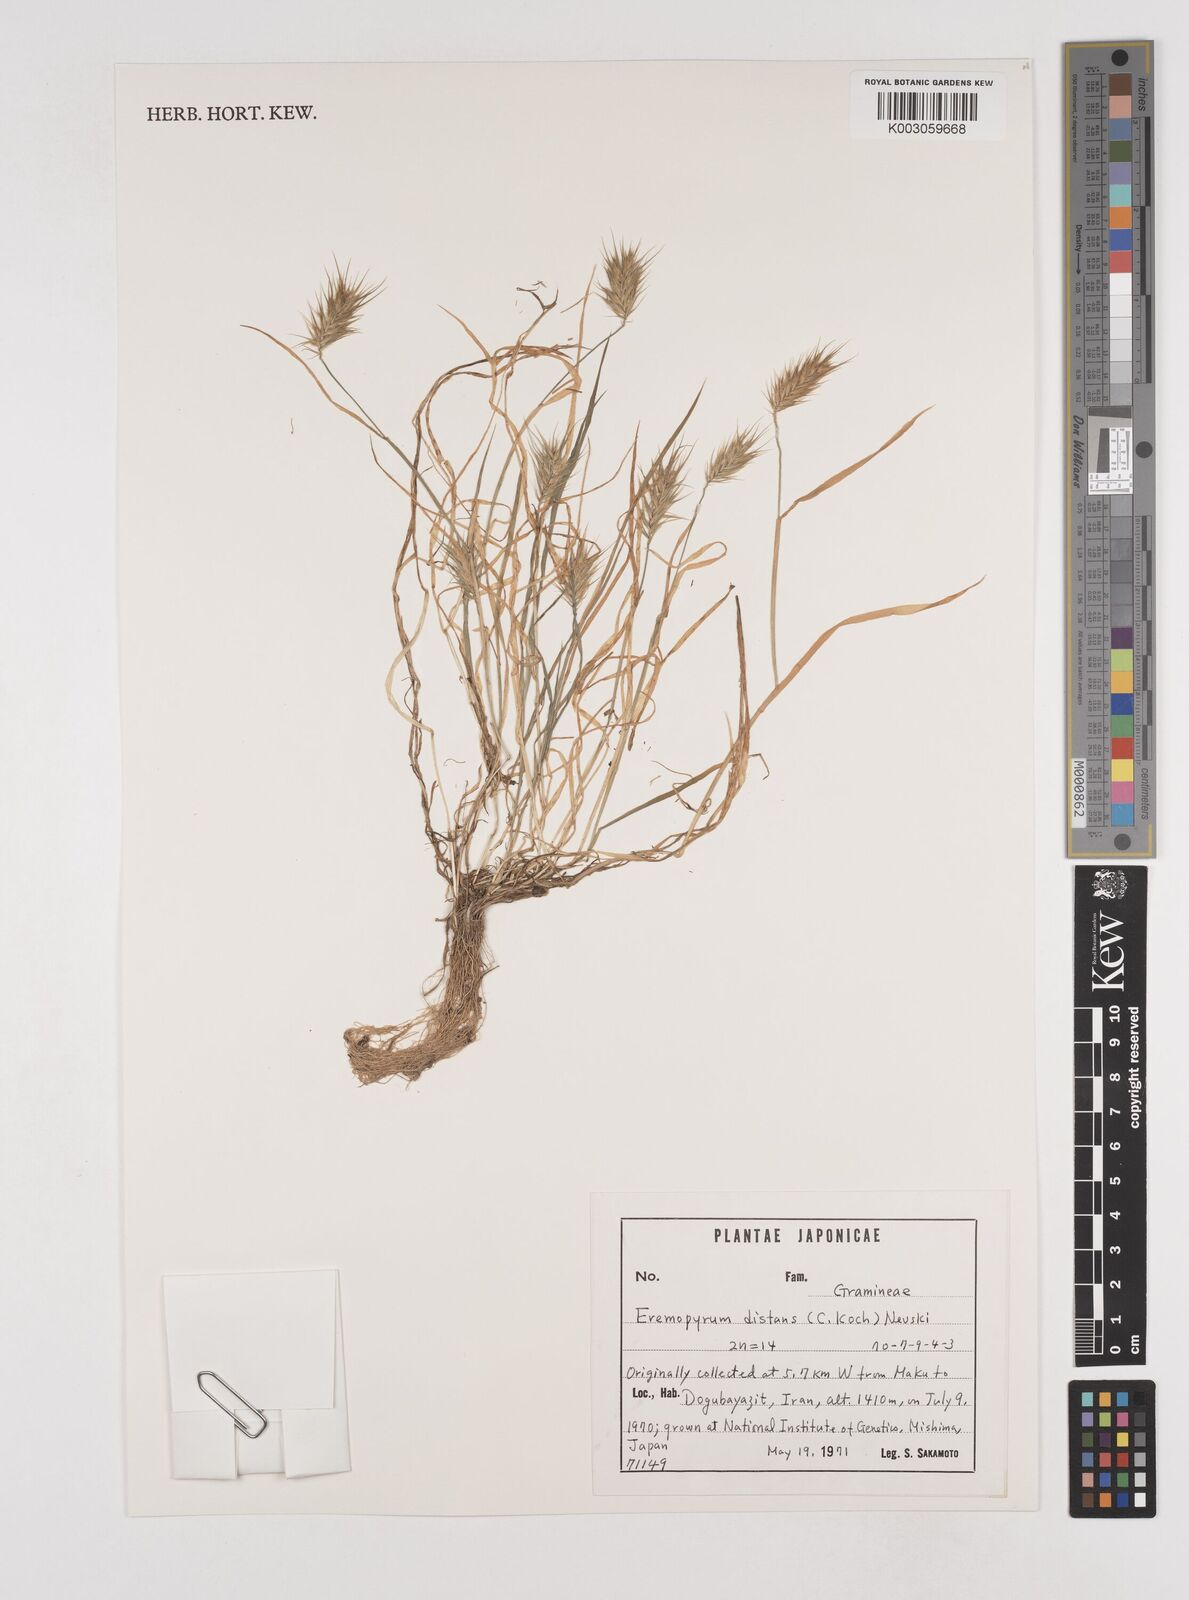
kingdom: Plantae
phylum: Tracheophyta
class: Liliopsida
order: Poales
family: Poaceae
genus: Eremopyrum
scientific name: Eremopyrum distans
